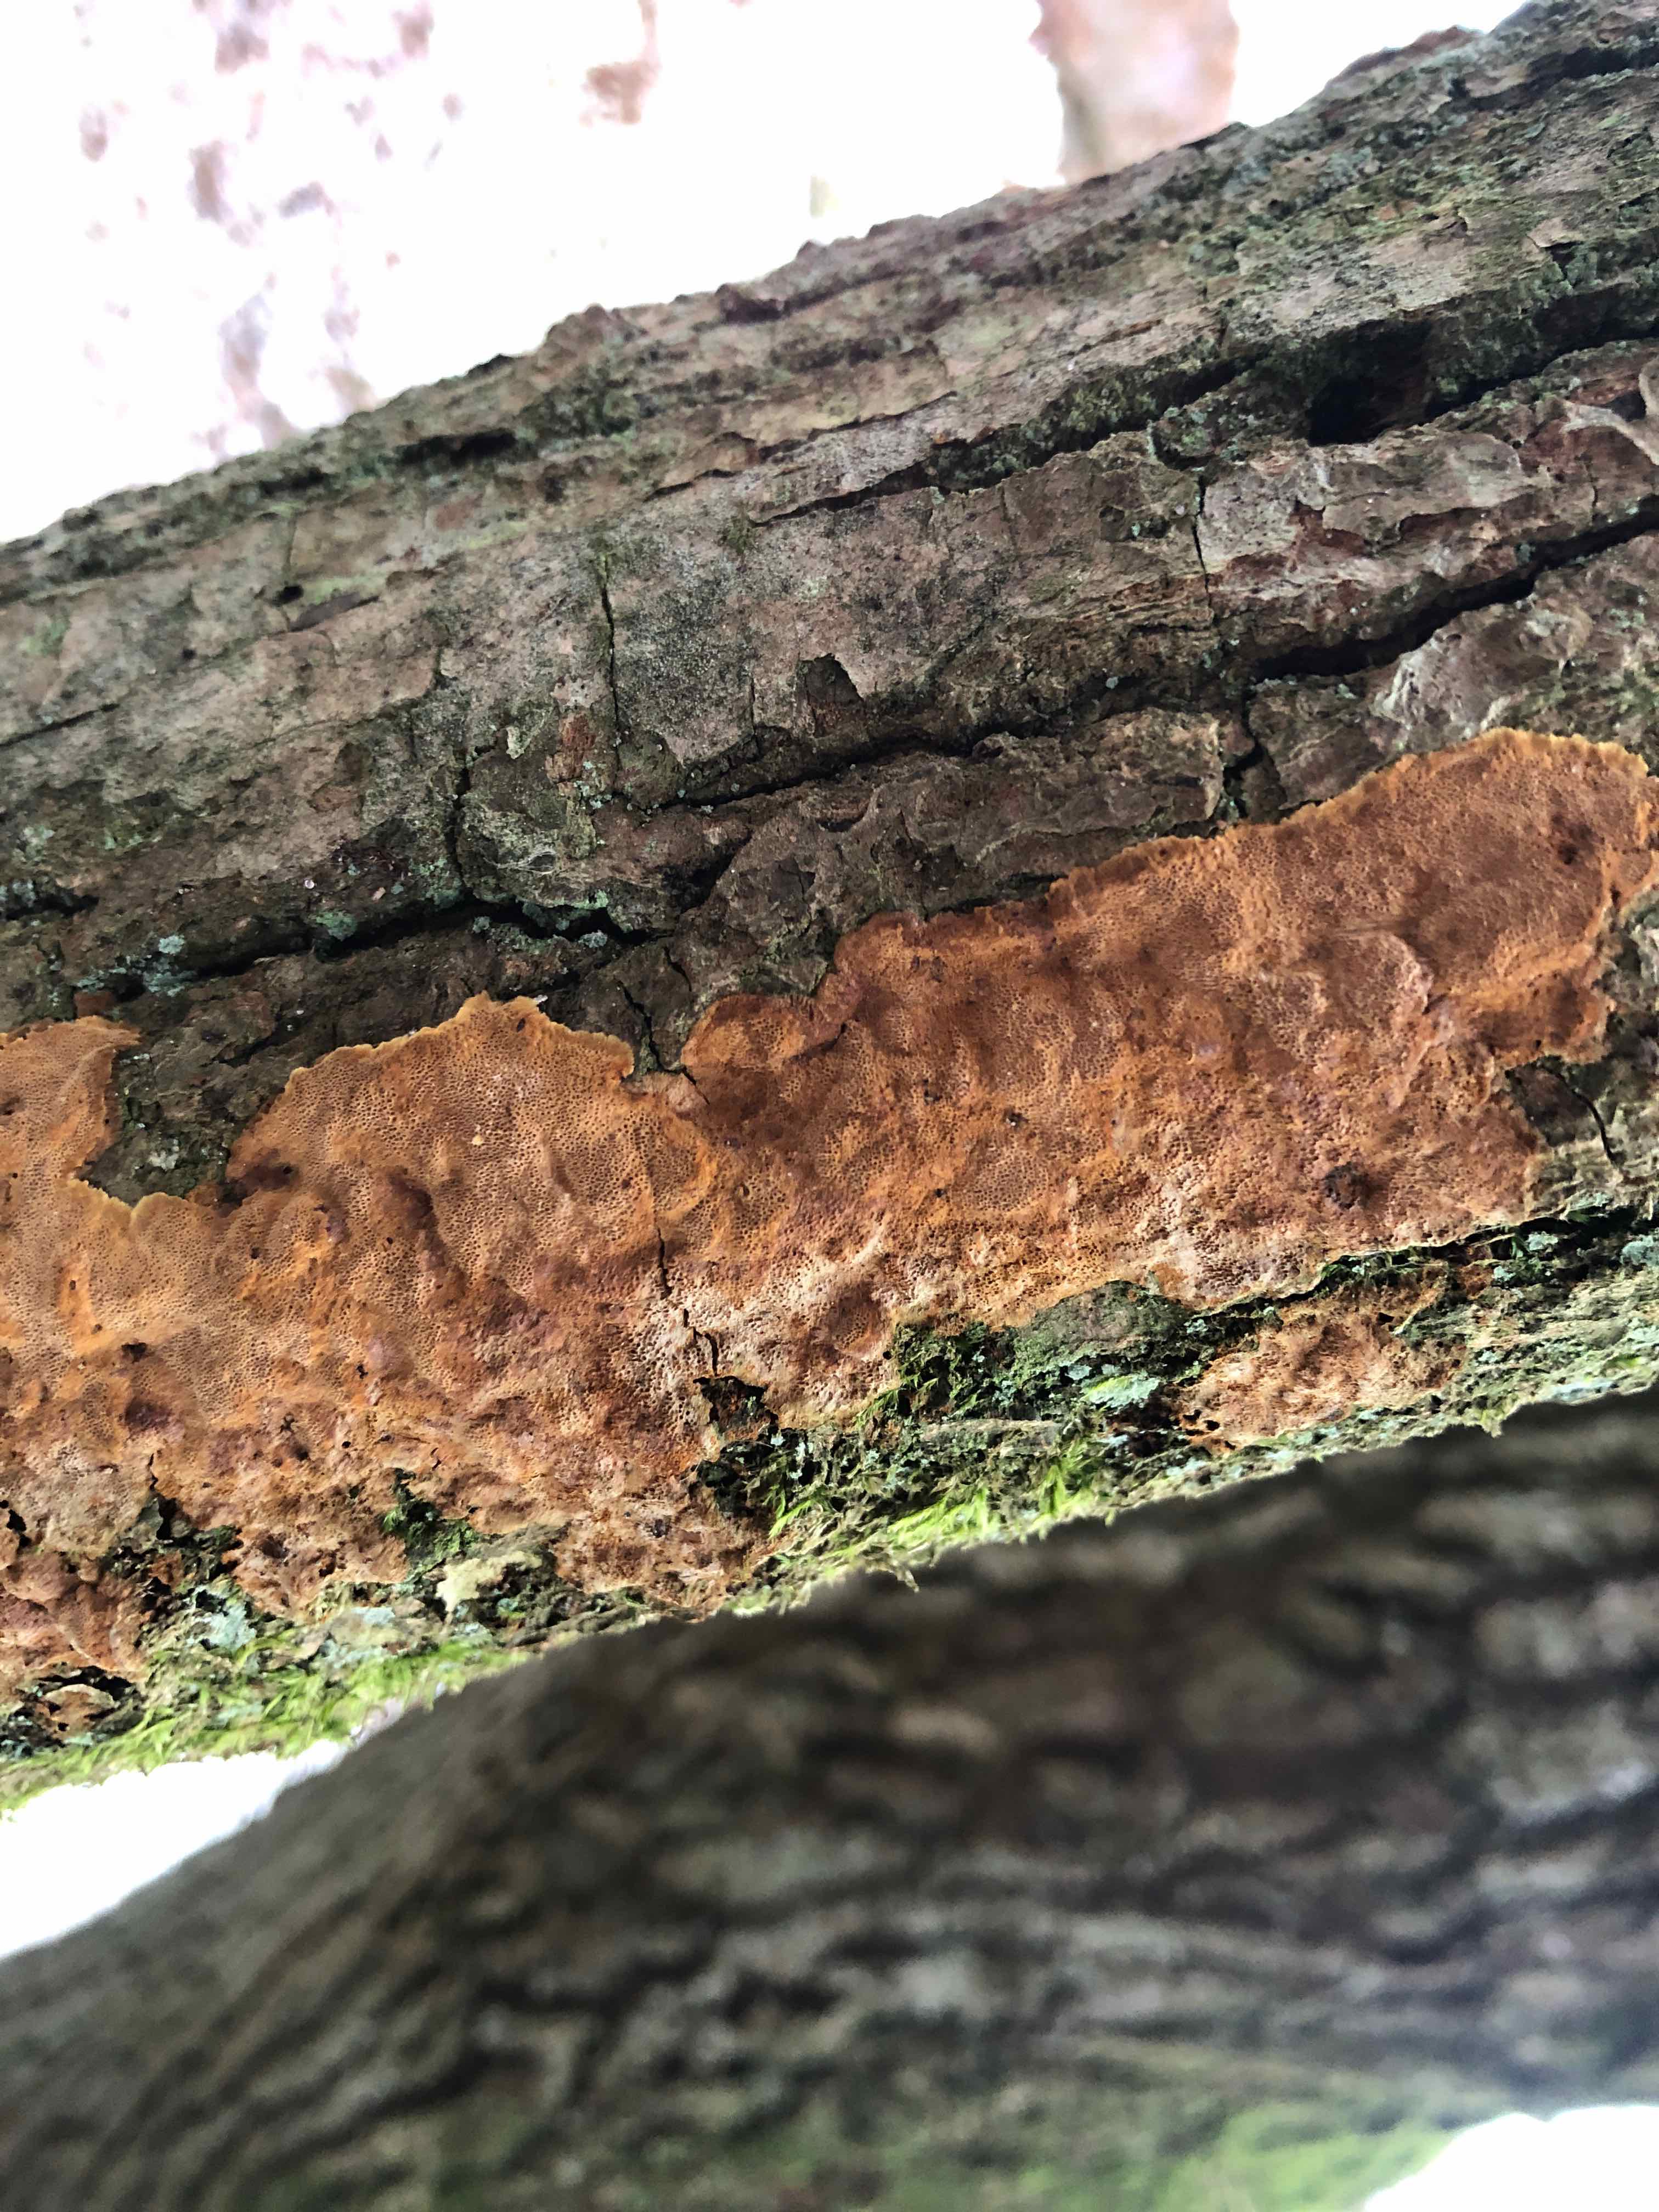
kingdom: Fungi
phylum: Basidiomycota
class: Agaricomycetes
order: Hymenochaetales
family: Hymenochaetaceae
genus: Fuscoporia
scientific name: Fuscoporia ferrea
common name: skorpe-ildporesvamp
